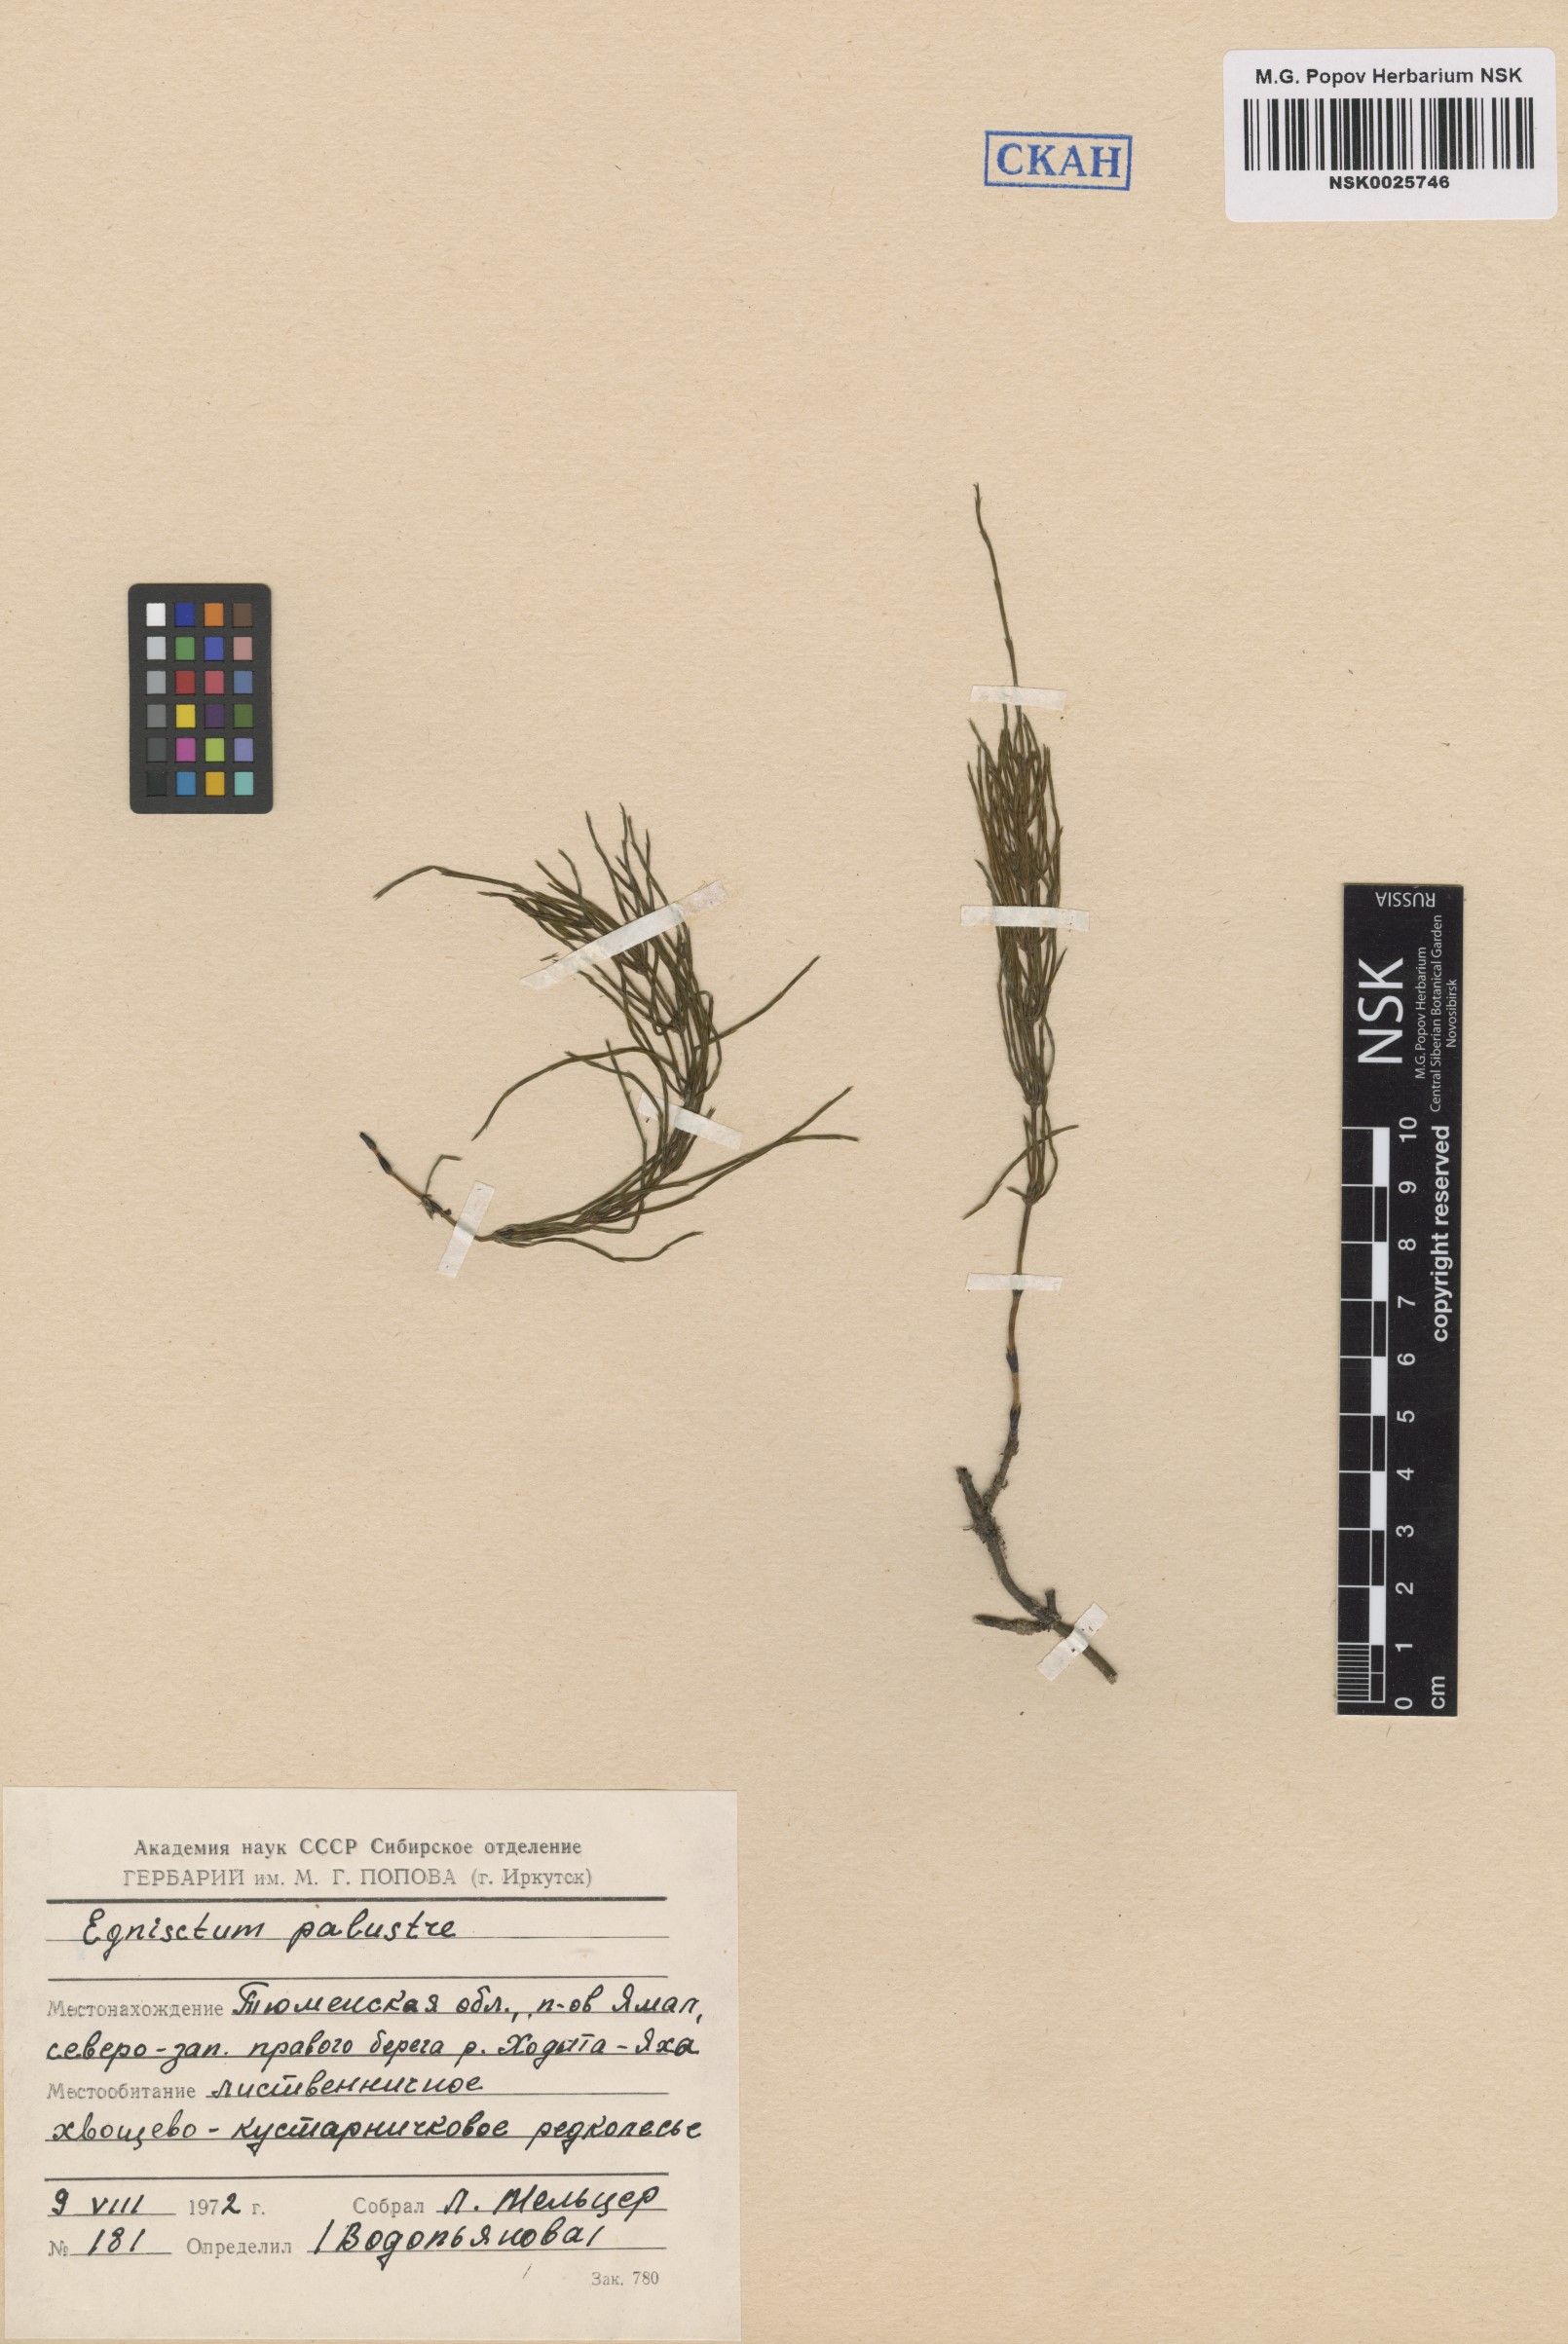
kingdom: Plantae
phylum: Tracheophyta
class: Polypodiopsida
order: Equisetales
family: Equisetaceae
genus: Equisetum
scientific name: Equisetum palustre
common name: Marsh horsetail
